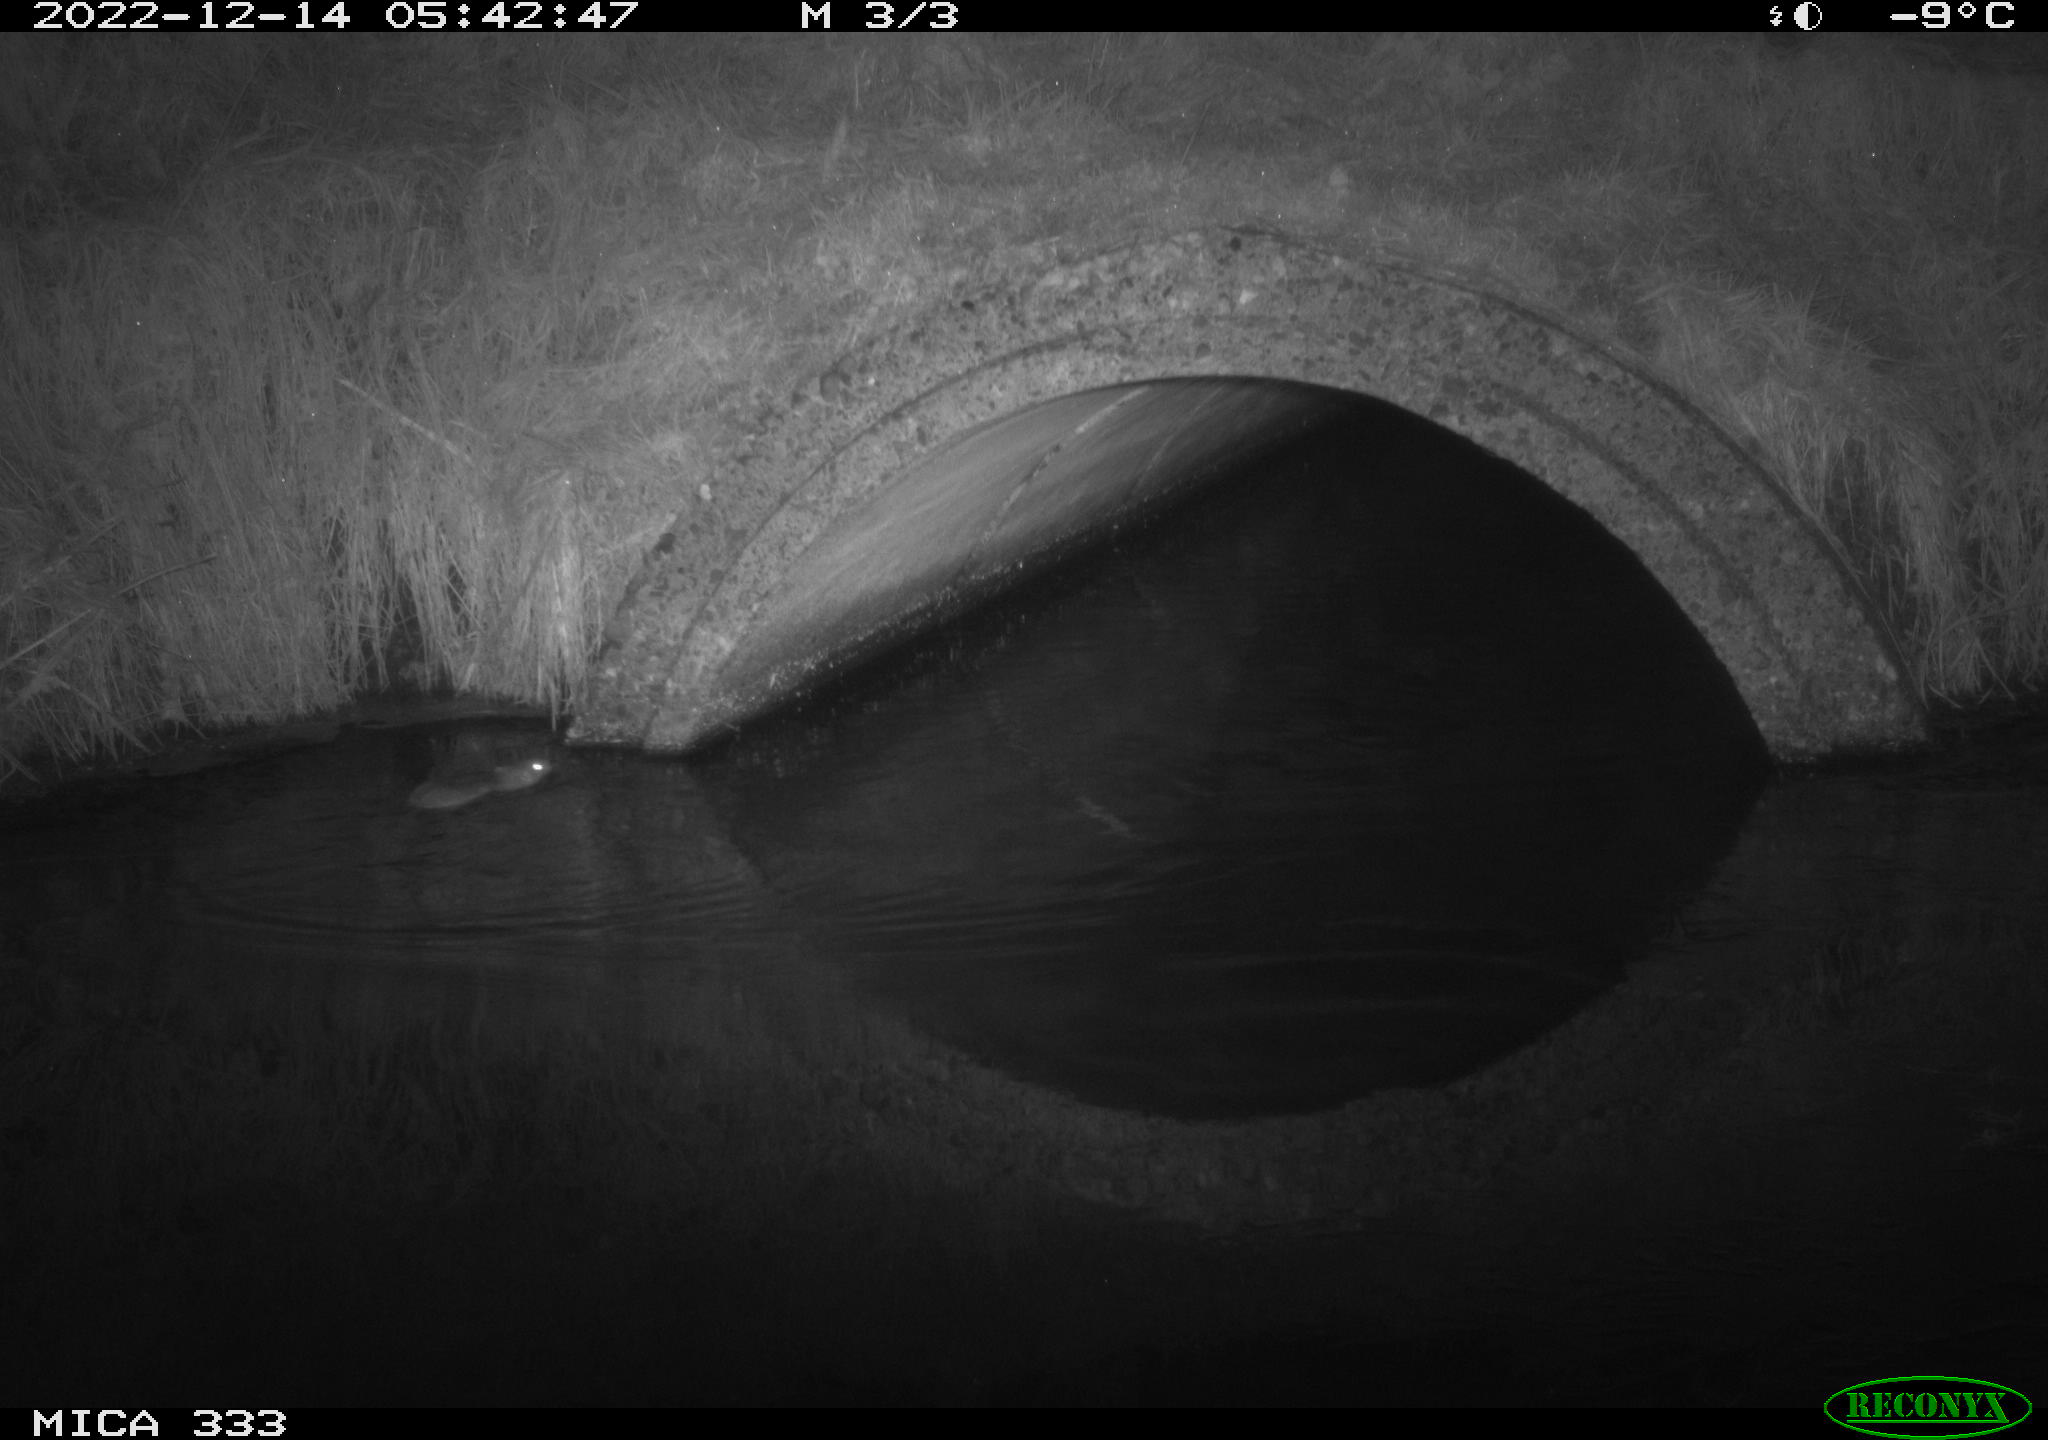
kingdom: Animalia
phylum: Chordata
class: Mammalia
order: Rodentia
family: Muridae
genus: Rattus
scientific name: Rattus norvegicus
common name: Brown rat
